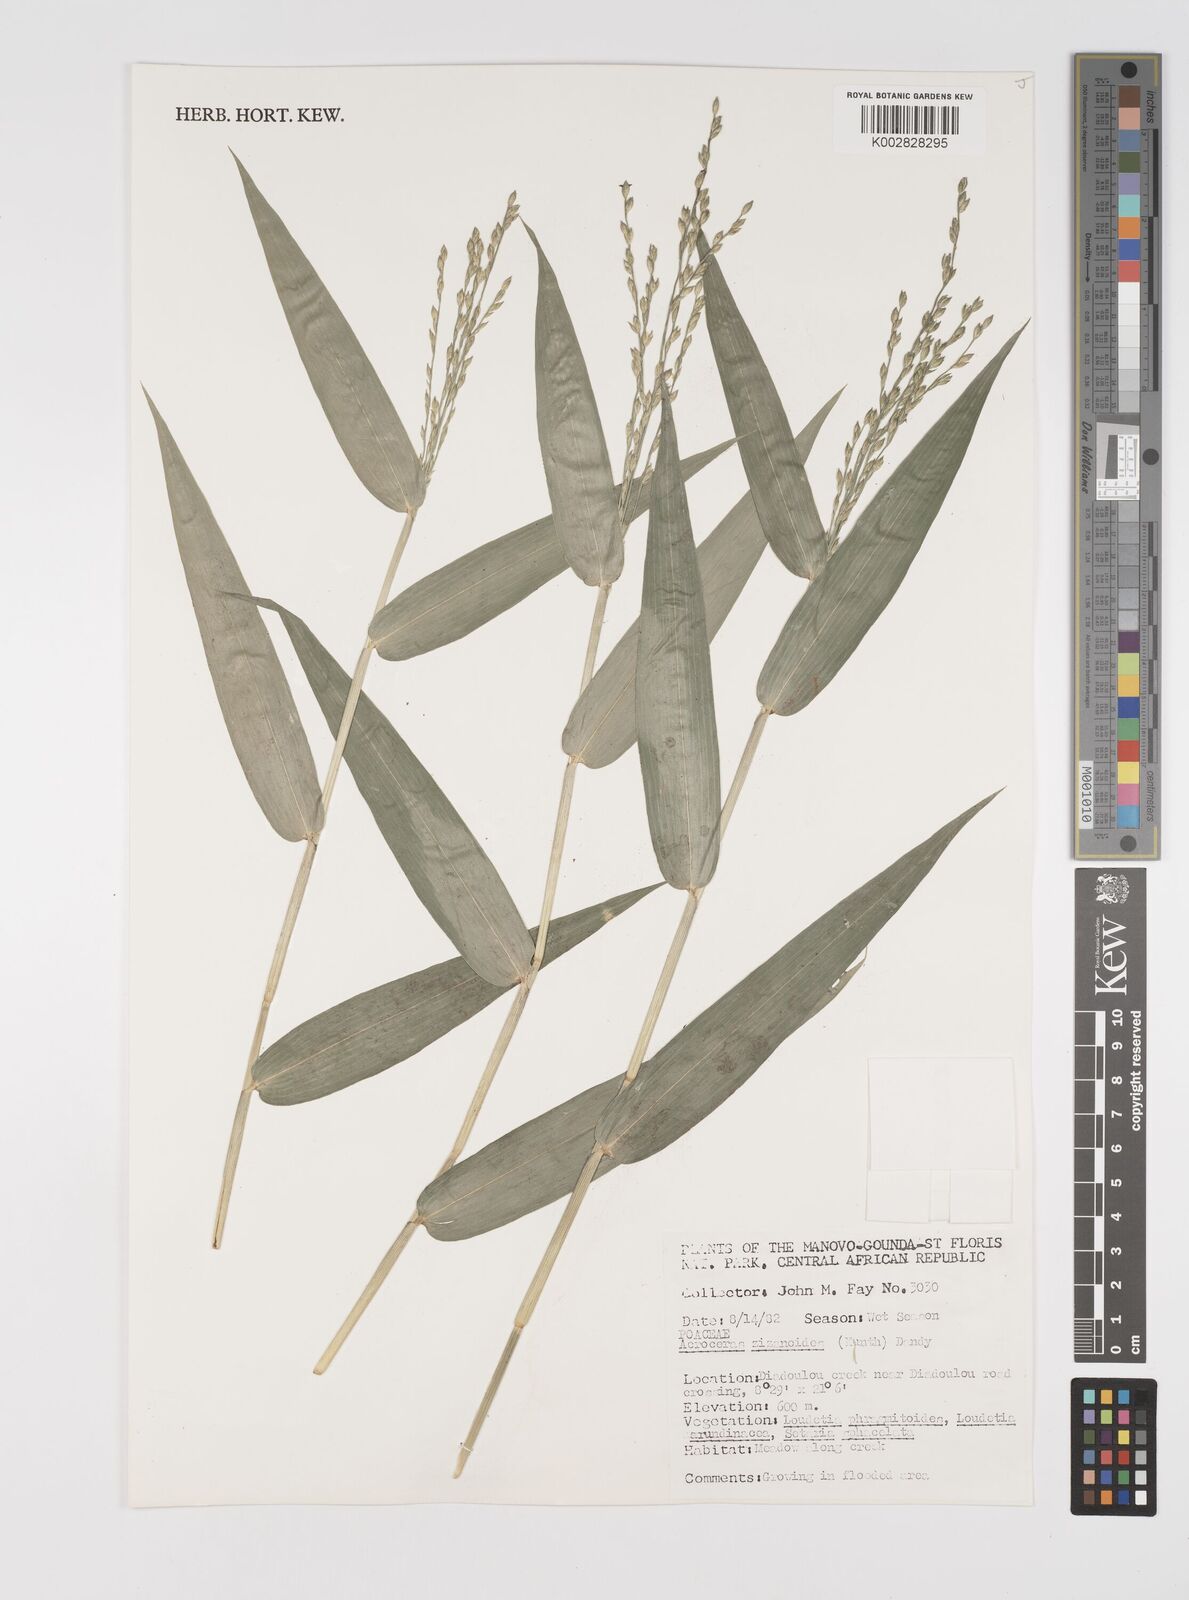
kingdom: Plantae
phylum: Tracheophyta
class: Liliopsida
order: Poales
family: Poaceae
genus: Acroceras
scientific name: Acroceras zizanioides
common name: Oat grass
